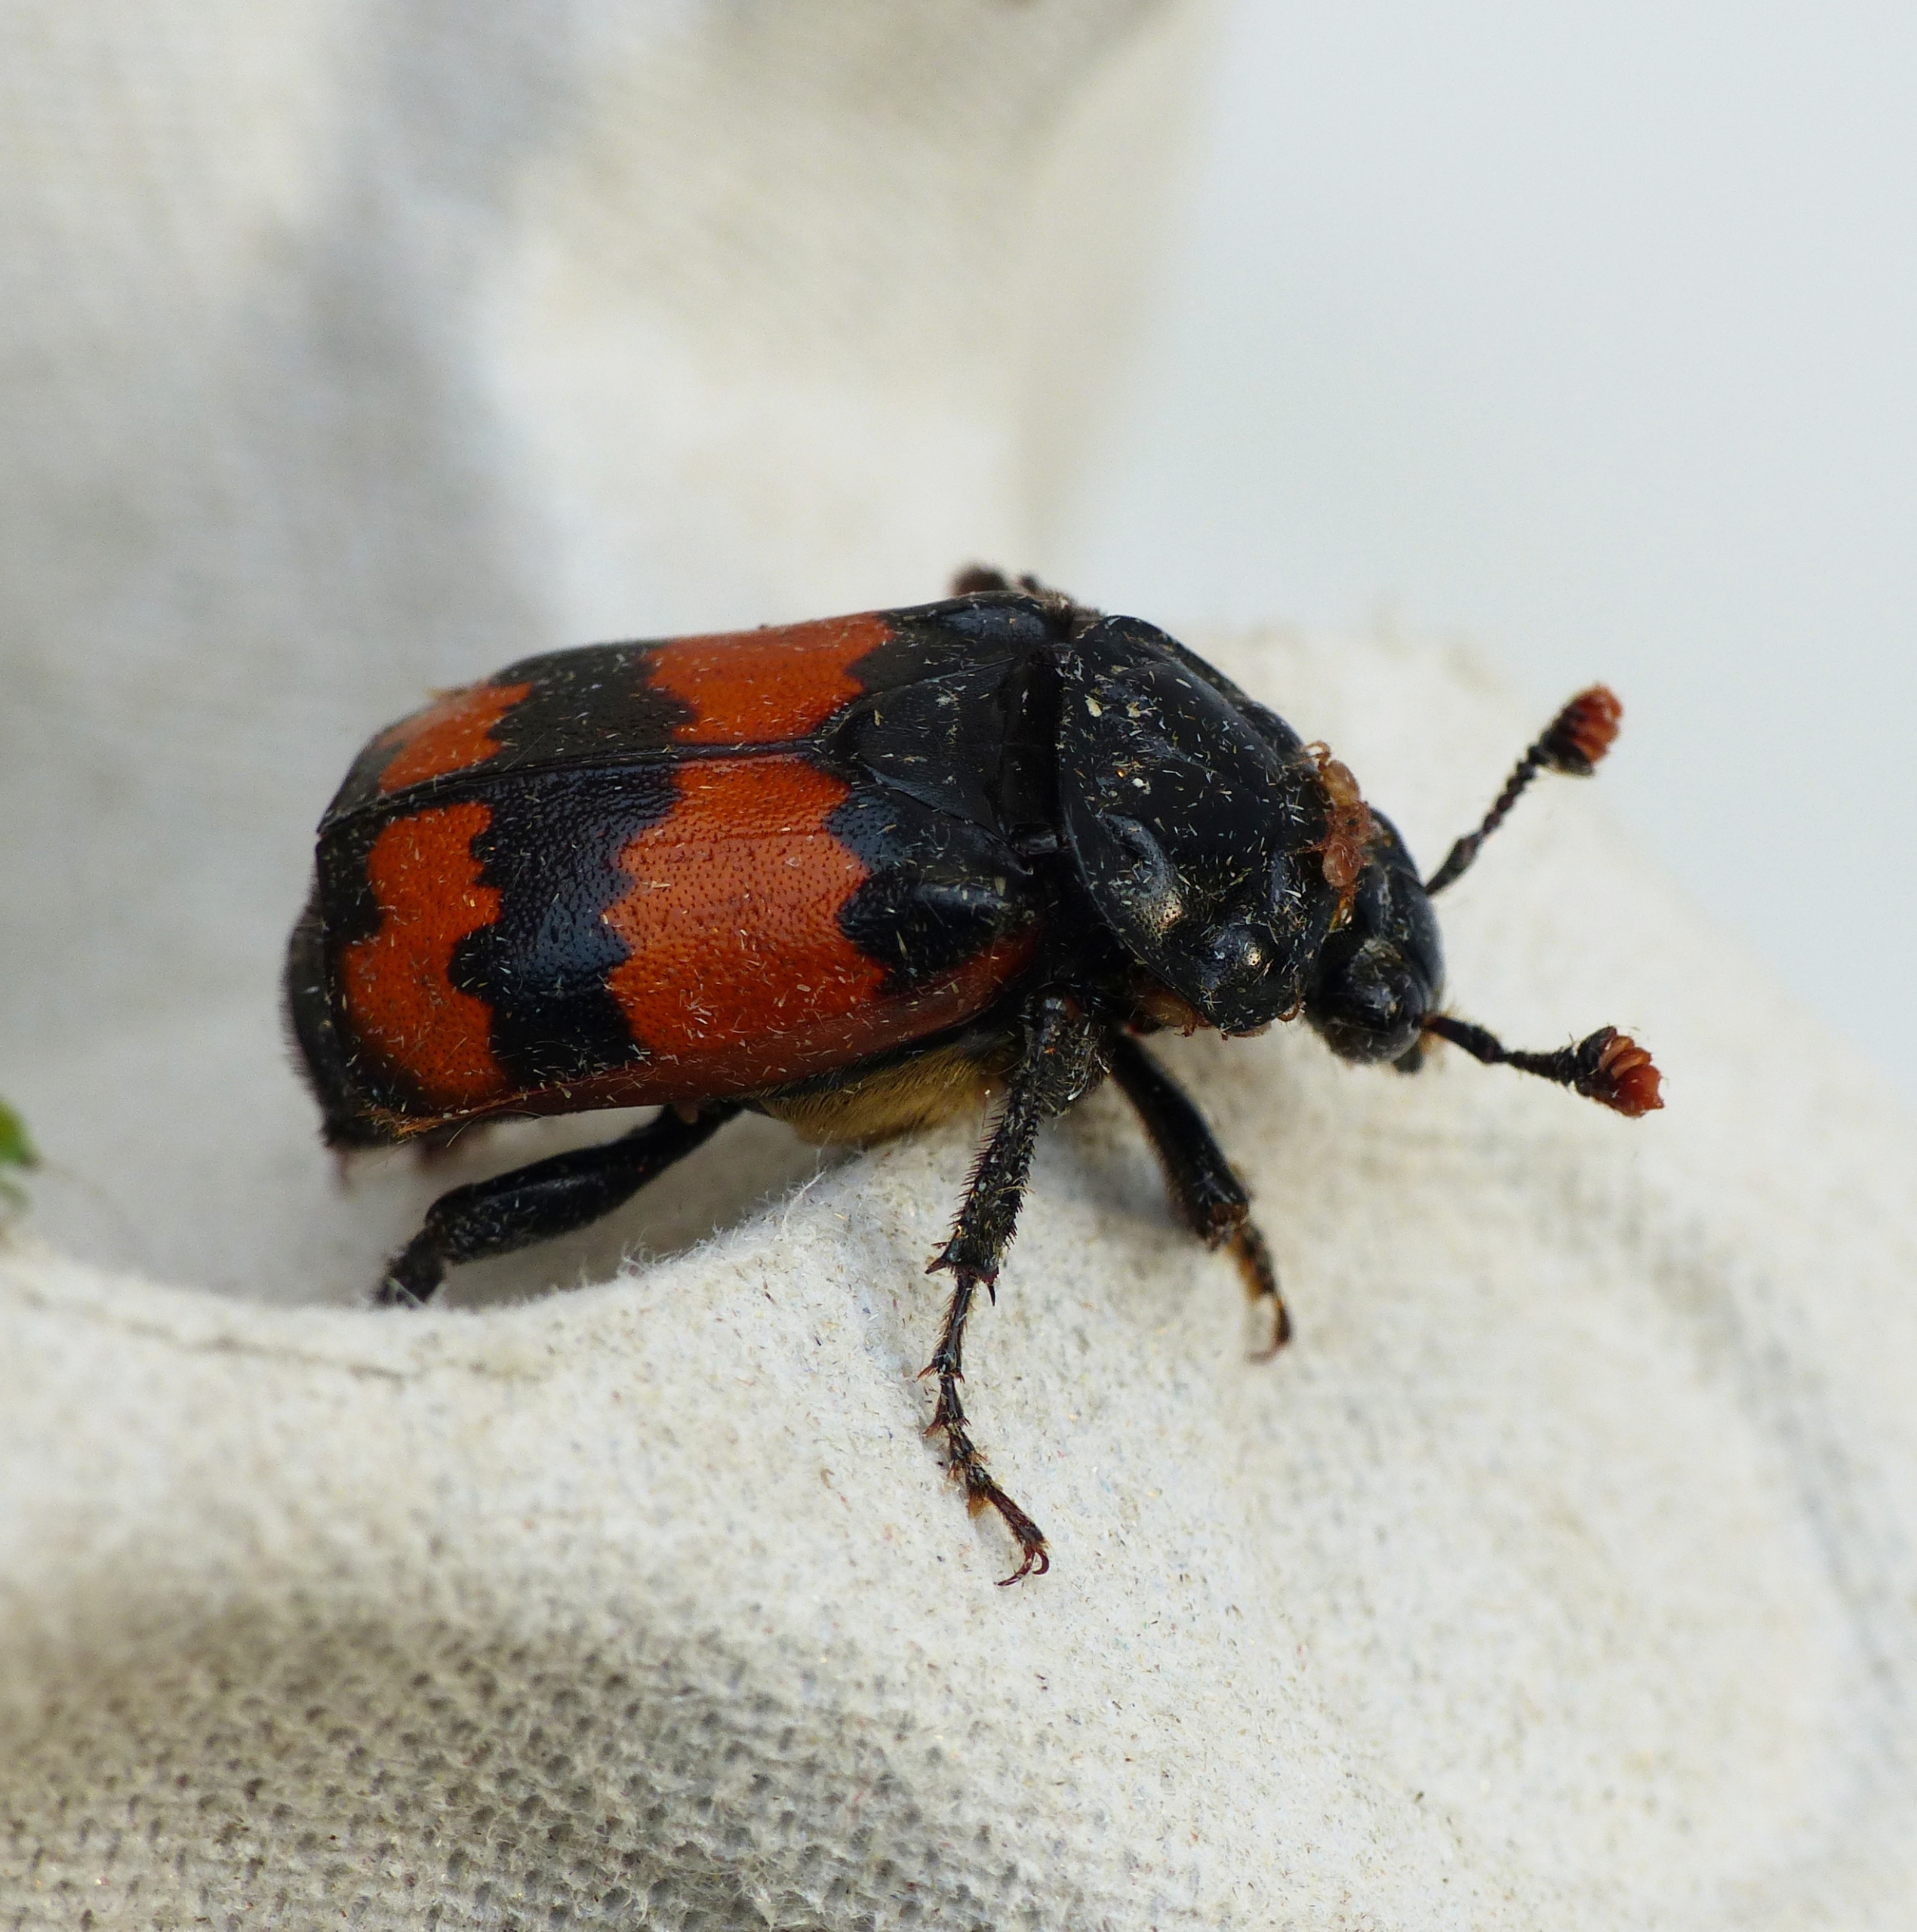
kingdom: Animalia
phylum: Arthropoda
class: Insecta
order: Coleoptera
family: Staphylinidae
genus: Nicrophorus
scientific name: Nicrophorus investigator
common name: Skovådselgraver
